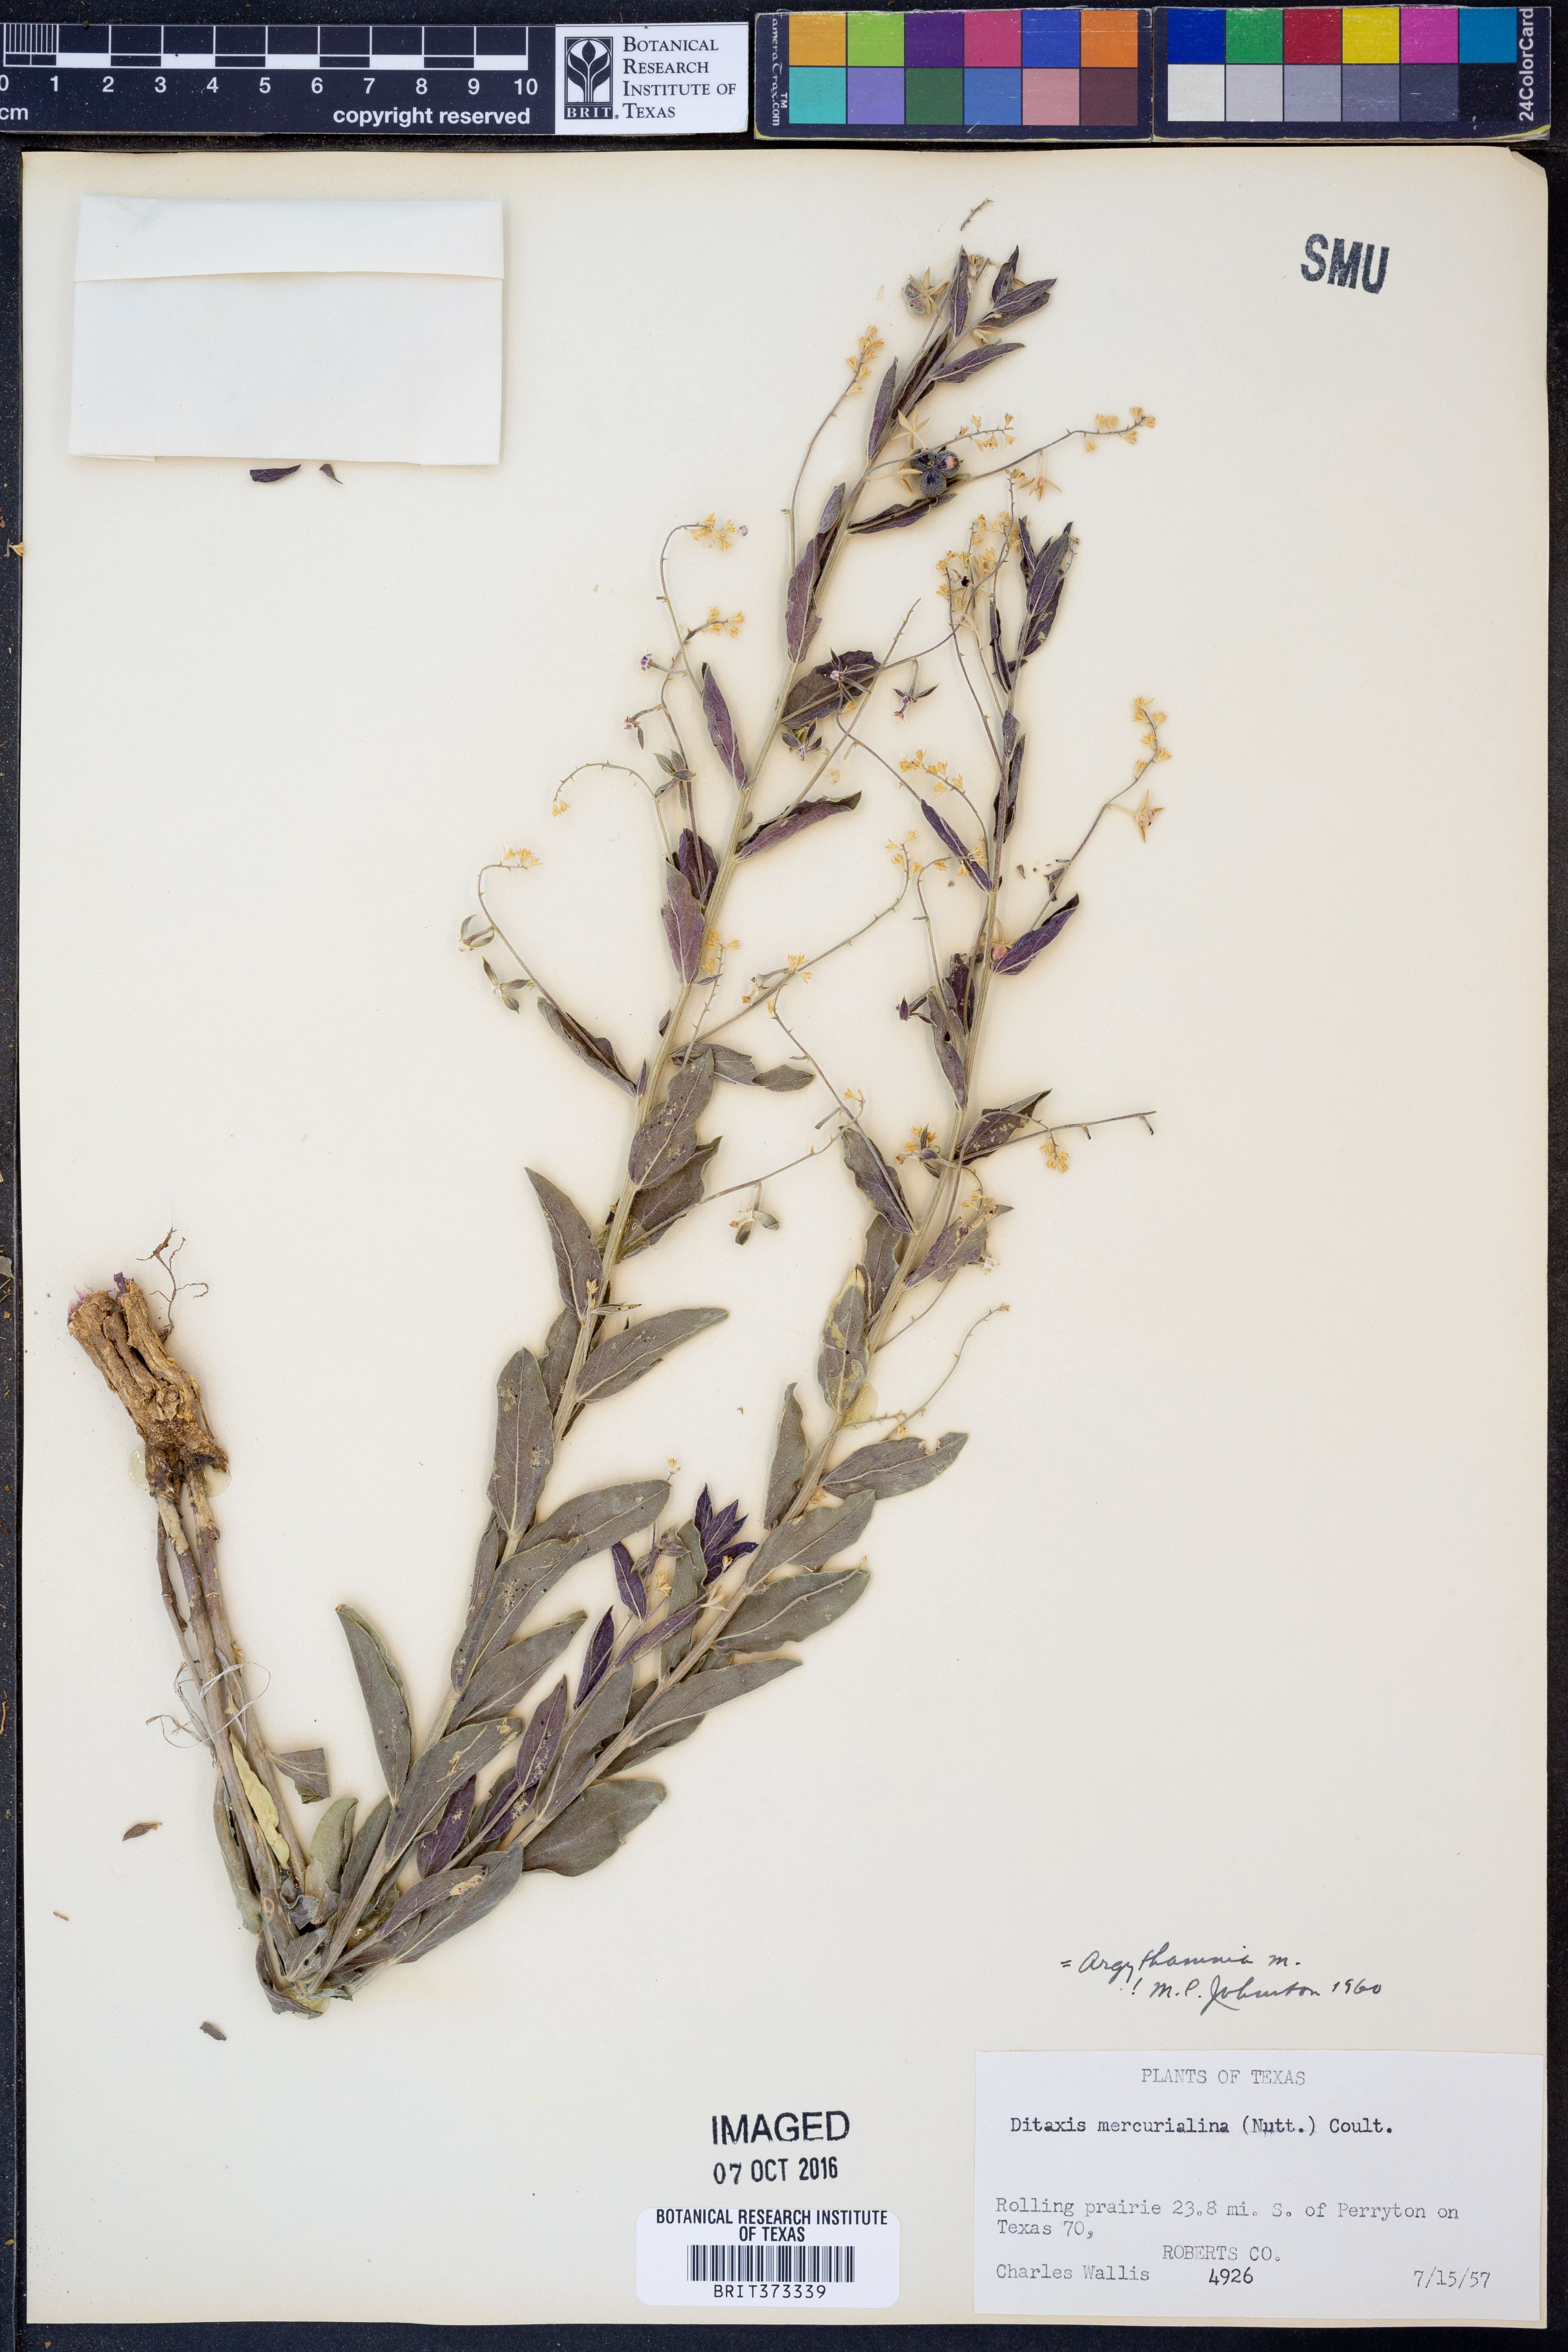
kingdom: Plantae
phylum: Tracheophyta
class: Magnoliopsida
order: Malpighiales
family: Euphorbiaceae
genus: Ditaxis
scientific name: Ditaxis mercurialina
